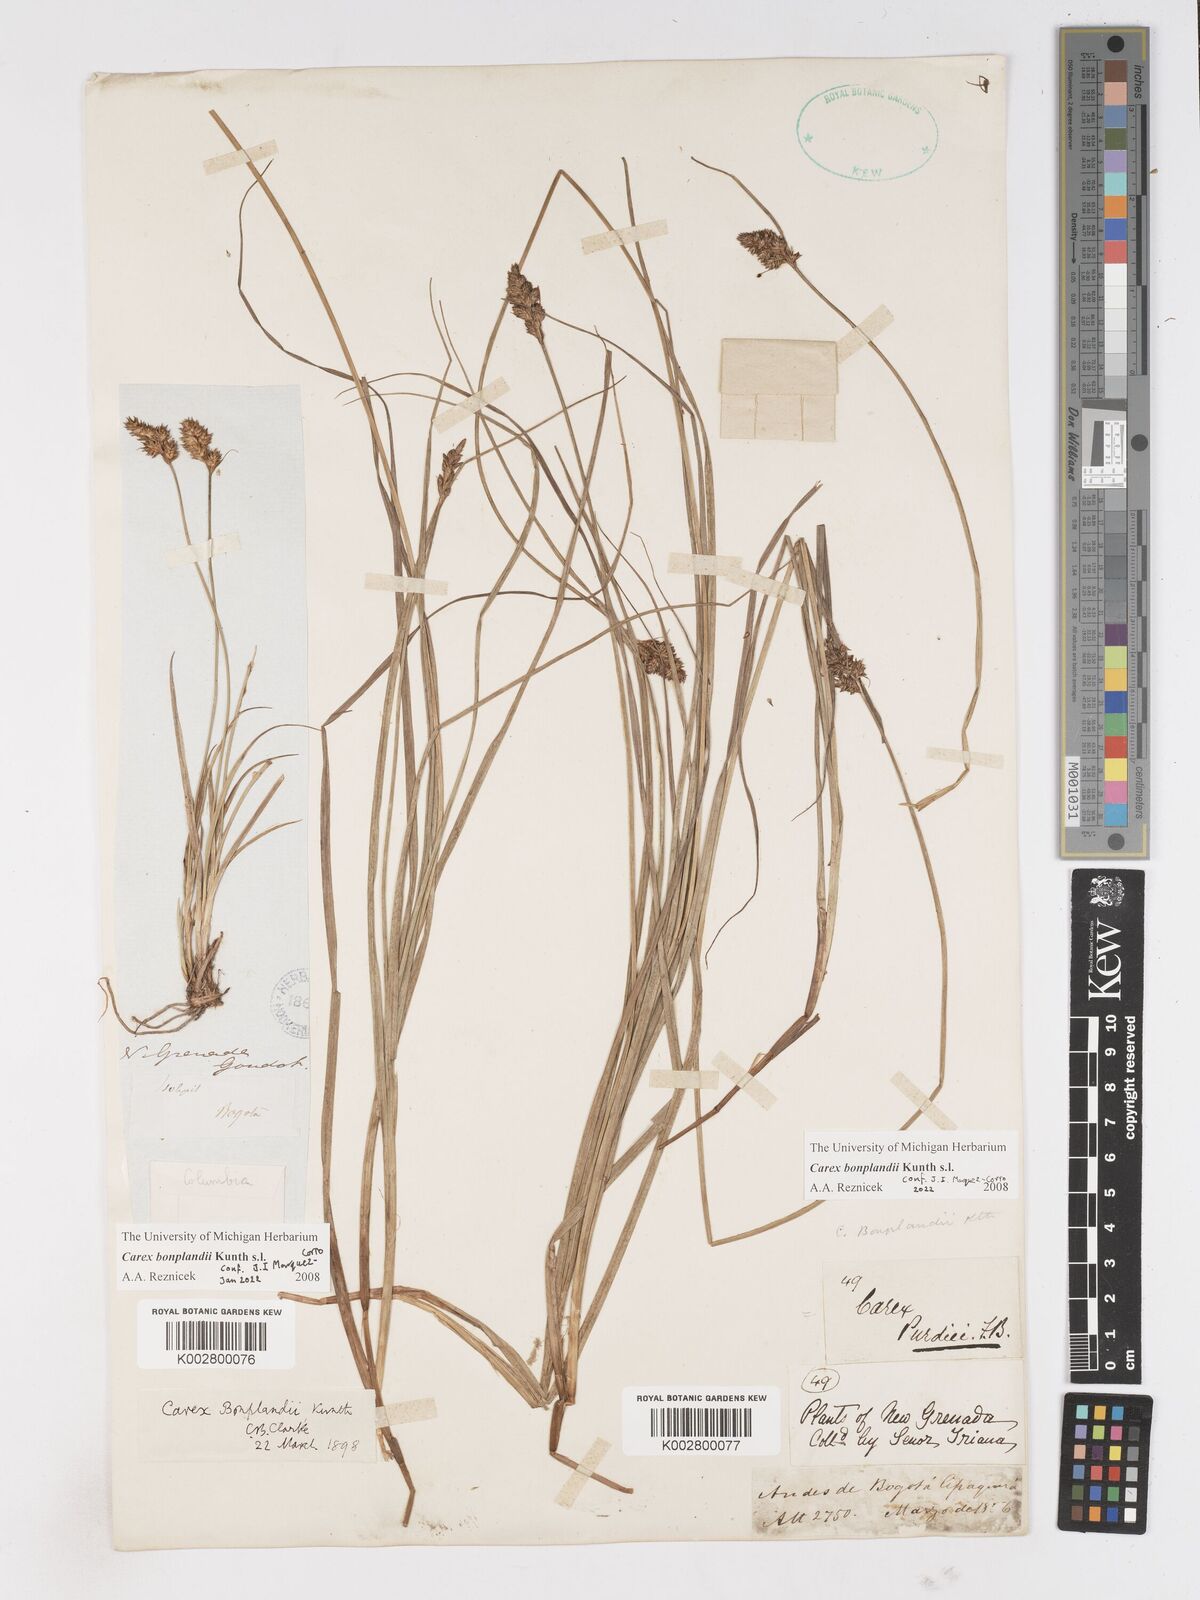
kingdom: Plantae
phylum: Tracheophyta
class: Liliopsida
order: Poales
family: Cyperaceae
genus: Carex
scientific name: Carex bonplandii
